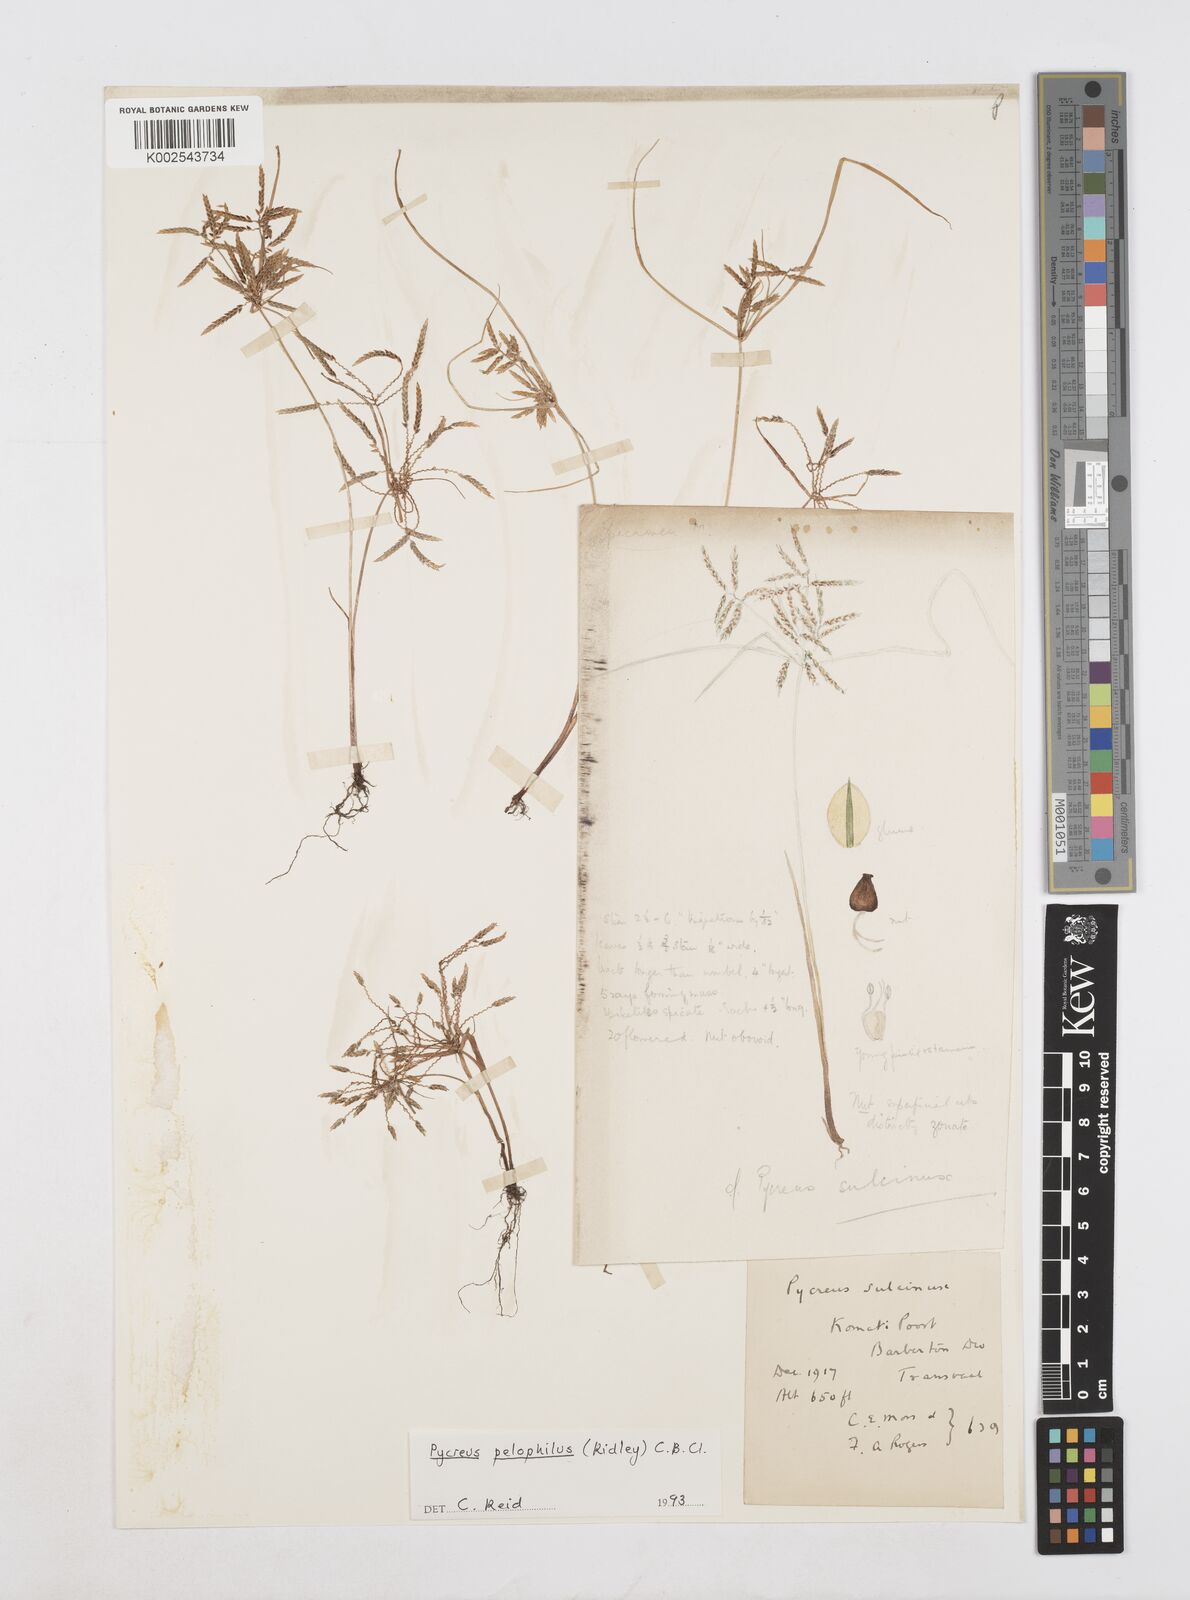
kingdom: Plantae
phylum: Tracheophyta
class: Liliopsida
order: Poales
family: Cyperaceae
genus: Cyperus
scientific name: Cyperus pelophilus
